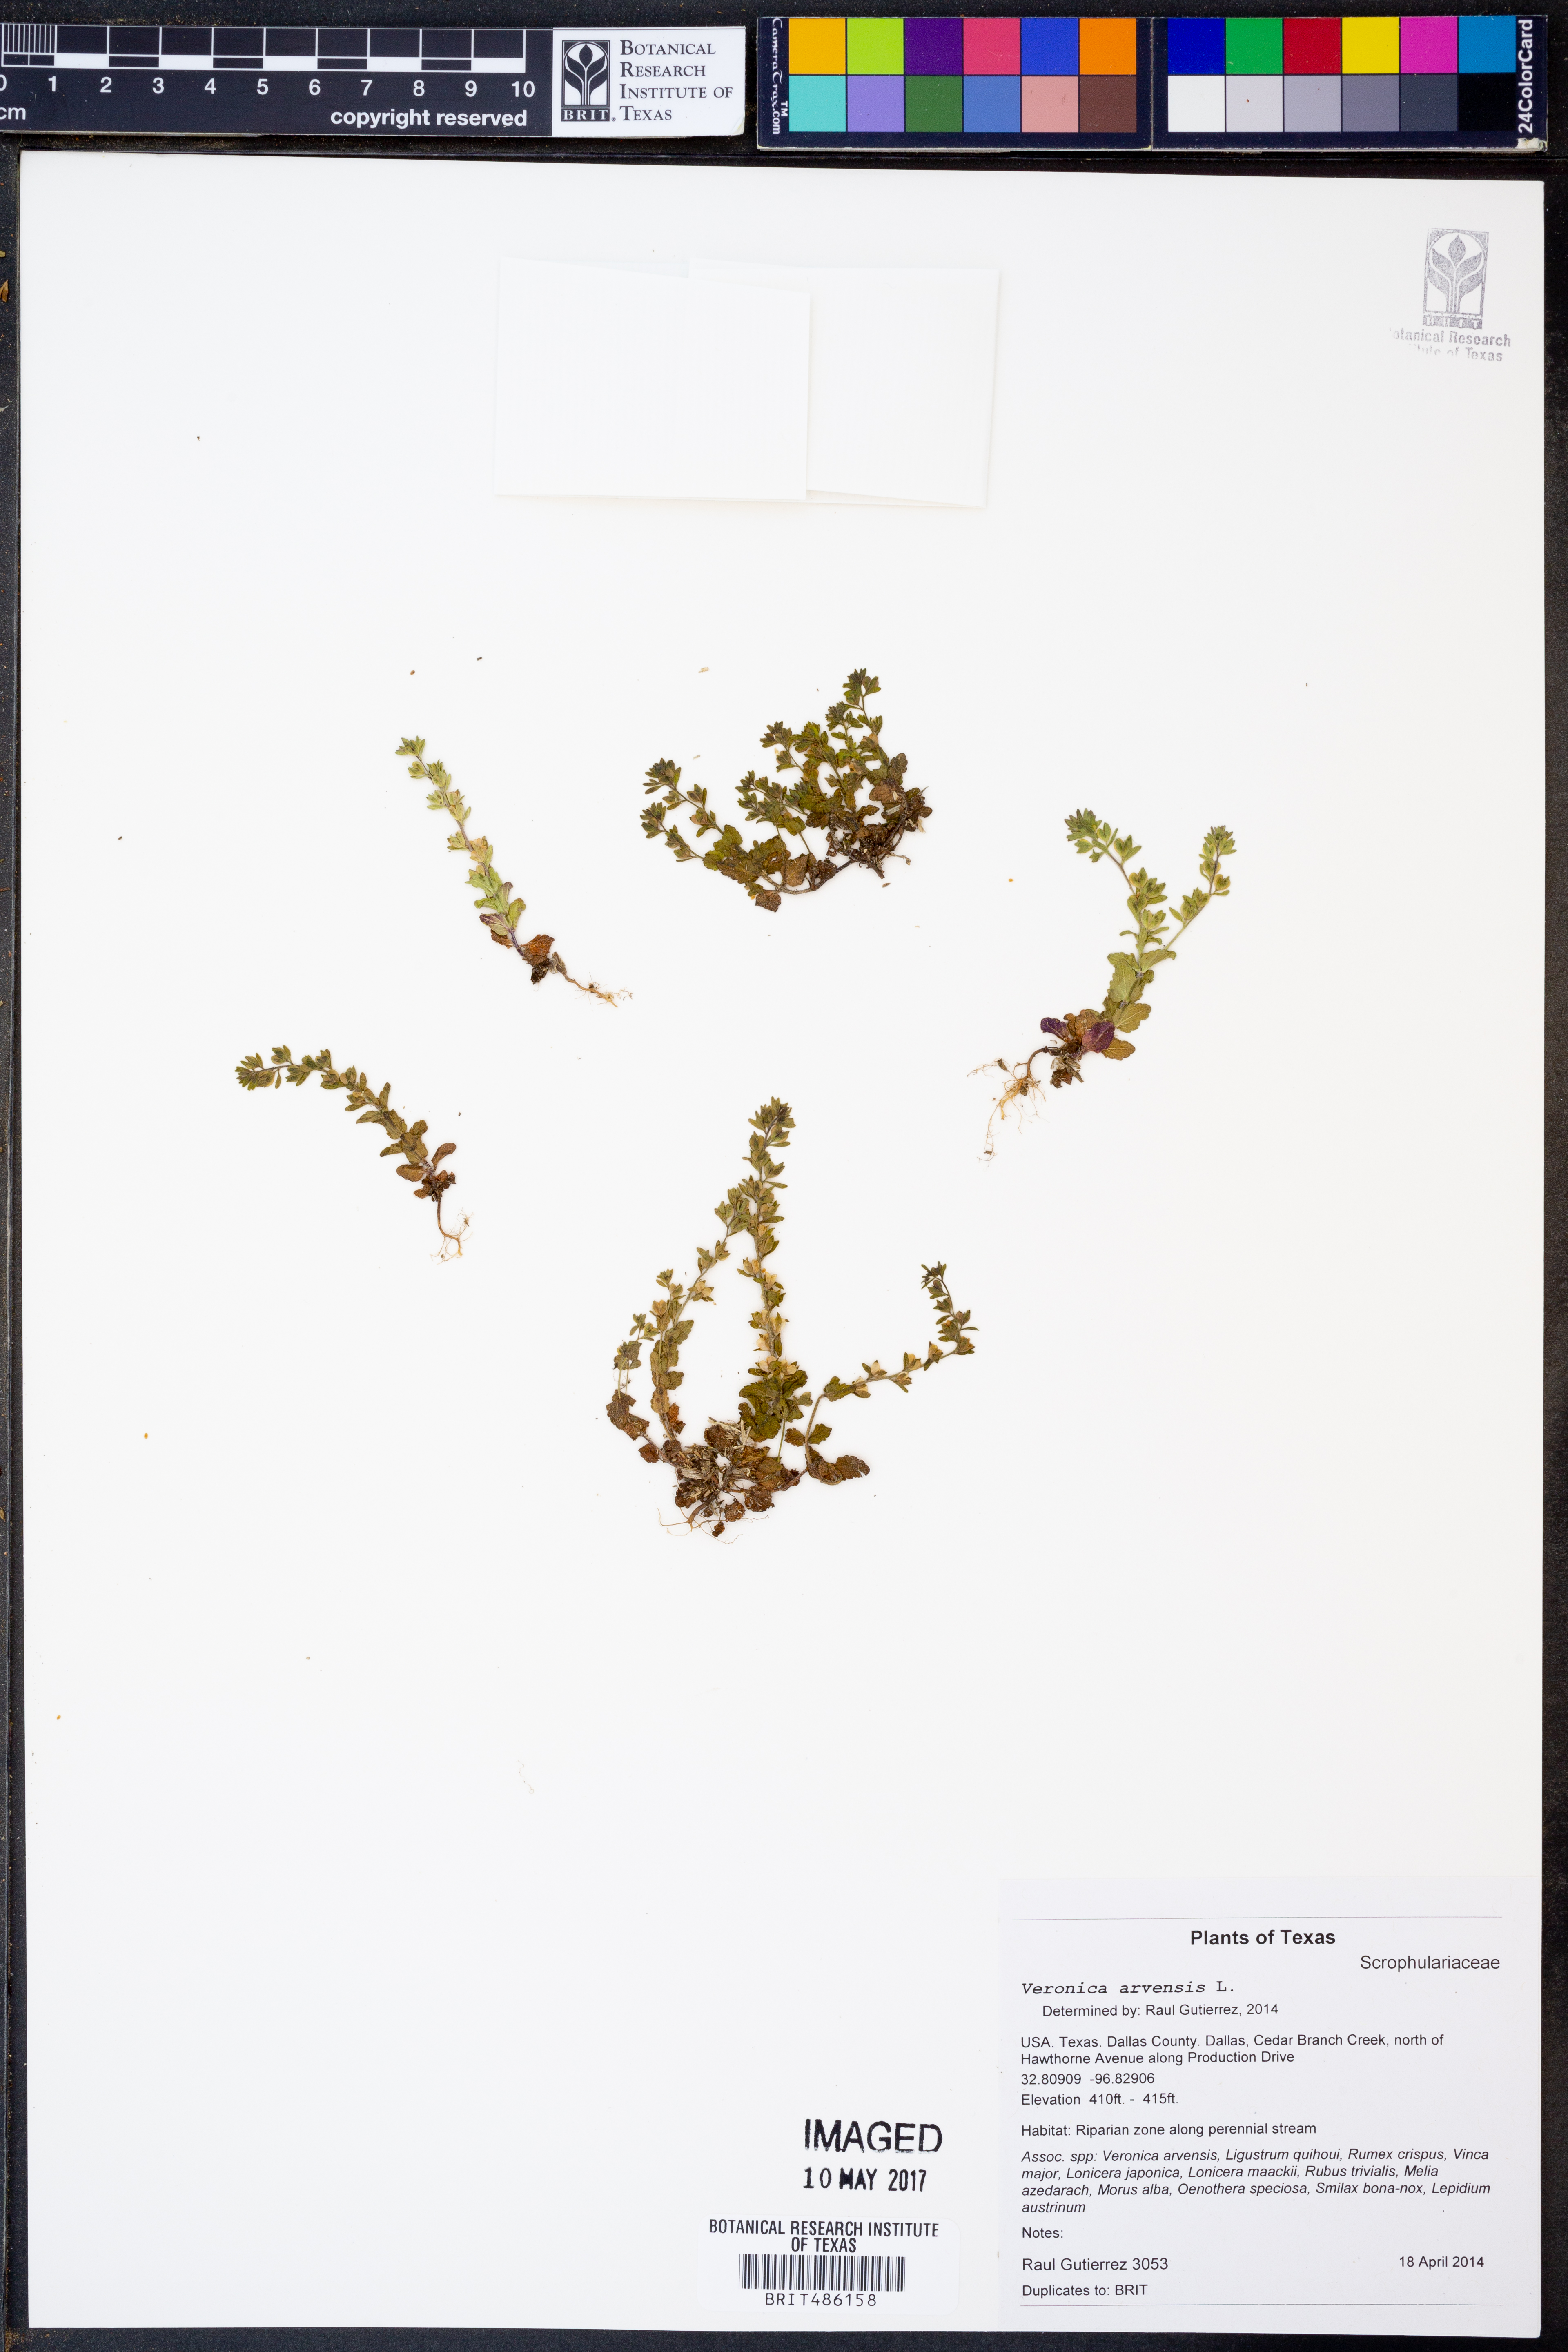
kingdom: Plantae
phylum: Tracheophyta
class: Magnoliopsida
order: Lamiales
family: Plantaginaceae
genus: Veronica
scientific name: Veronica arvensis
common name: Corn speedwell
